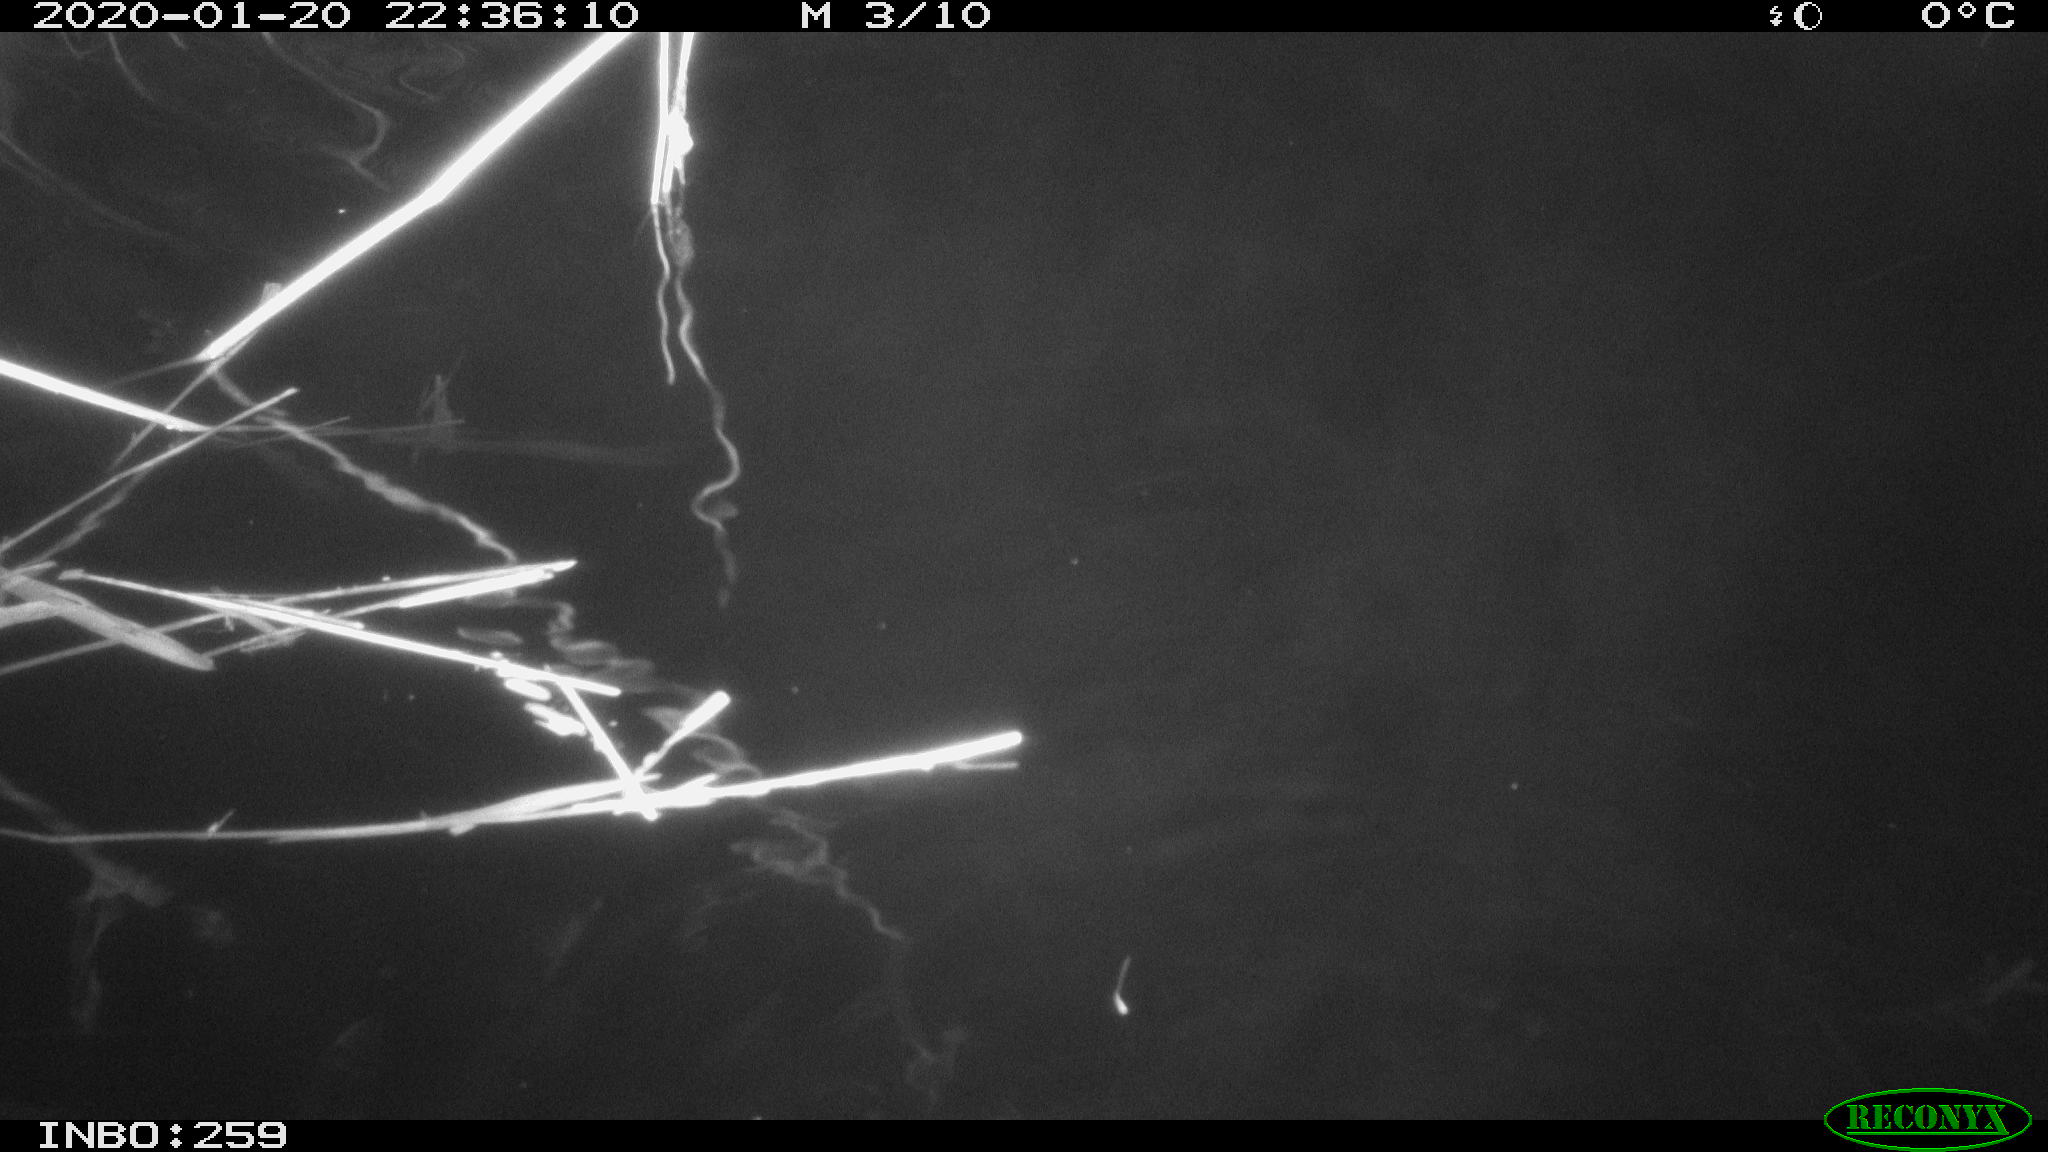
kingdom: Animalia
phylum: Chordata
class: Mammalia
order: Rodentia
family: Cricetidae
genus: Ondatra
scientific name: Ondatra zibethicus
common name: Muskrat
